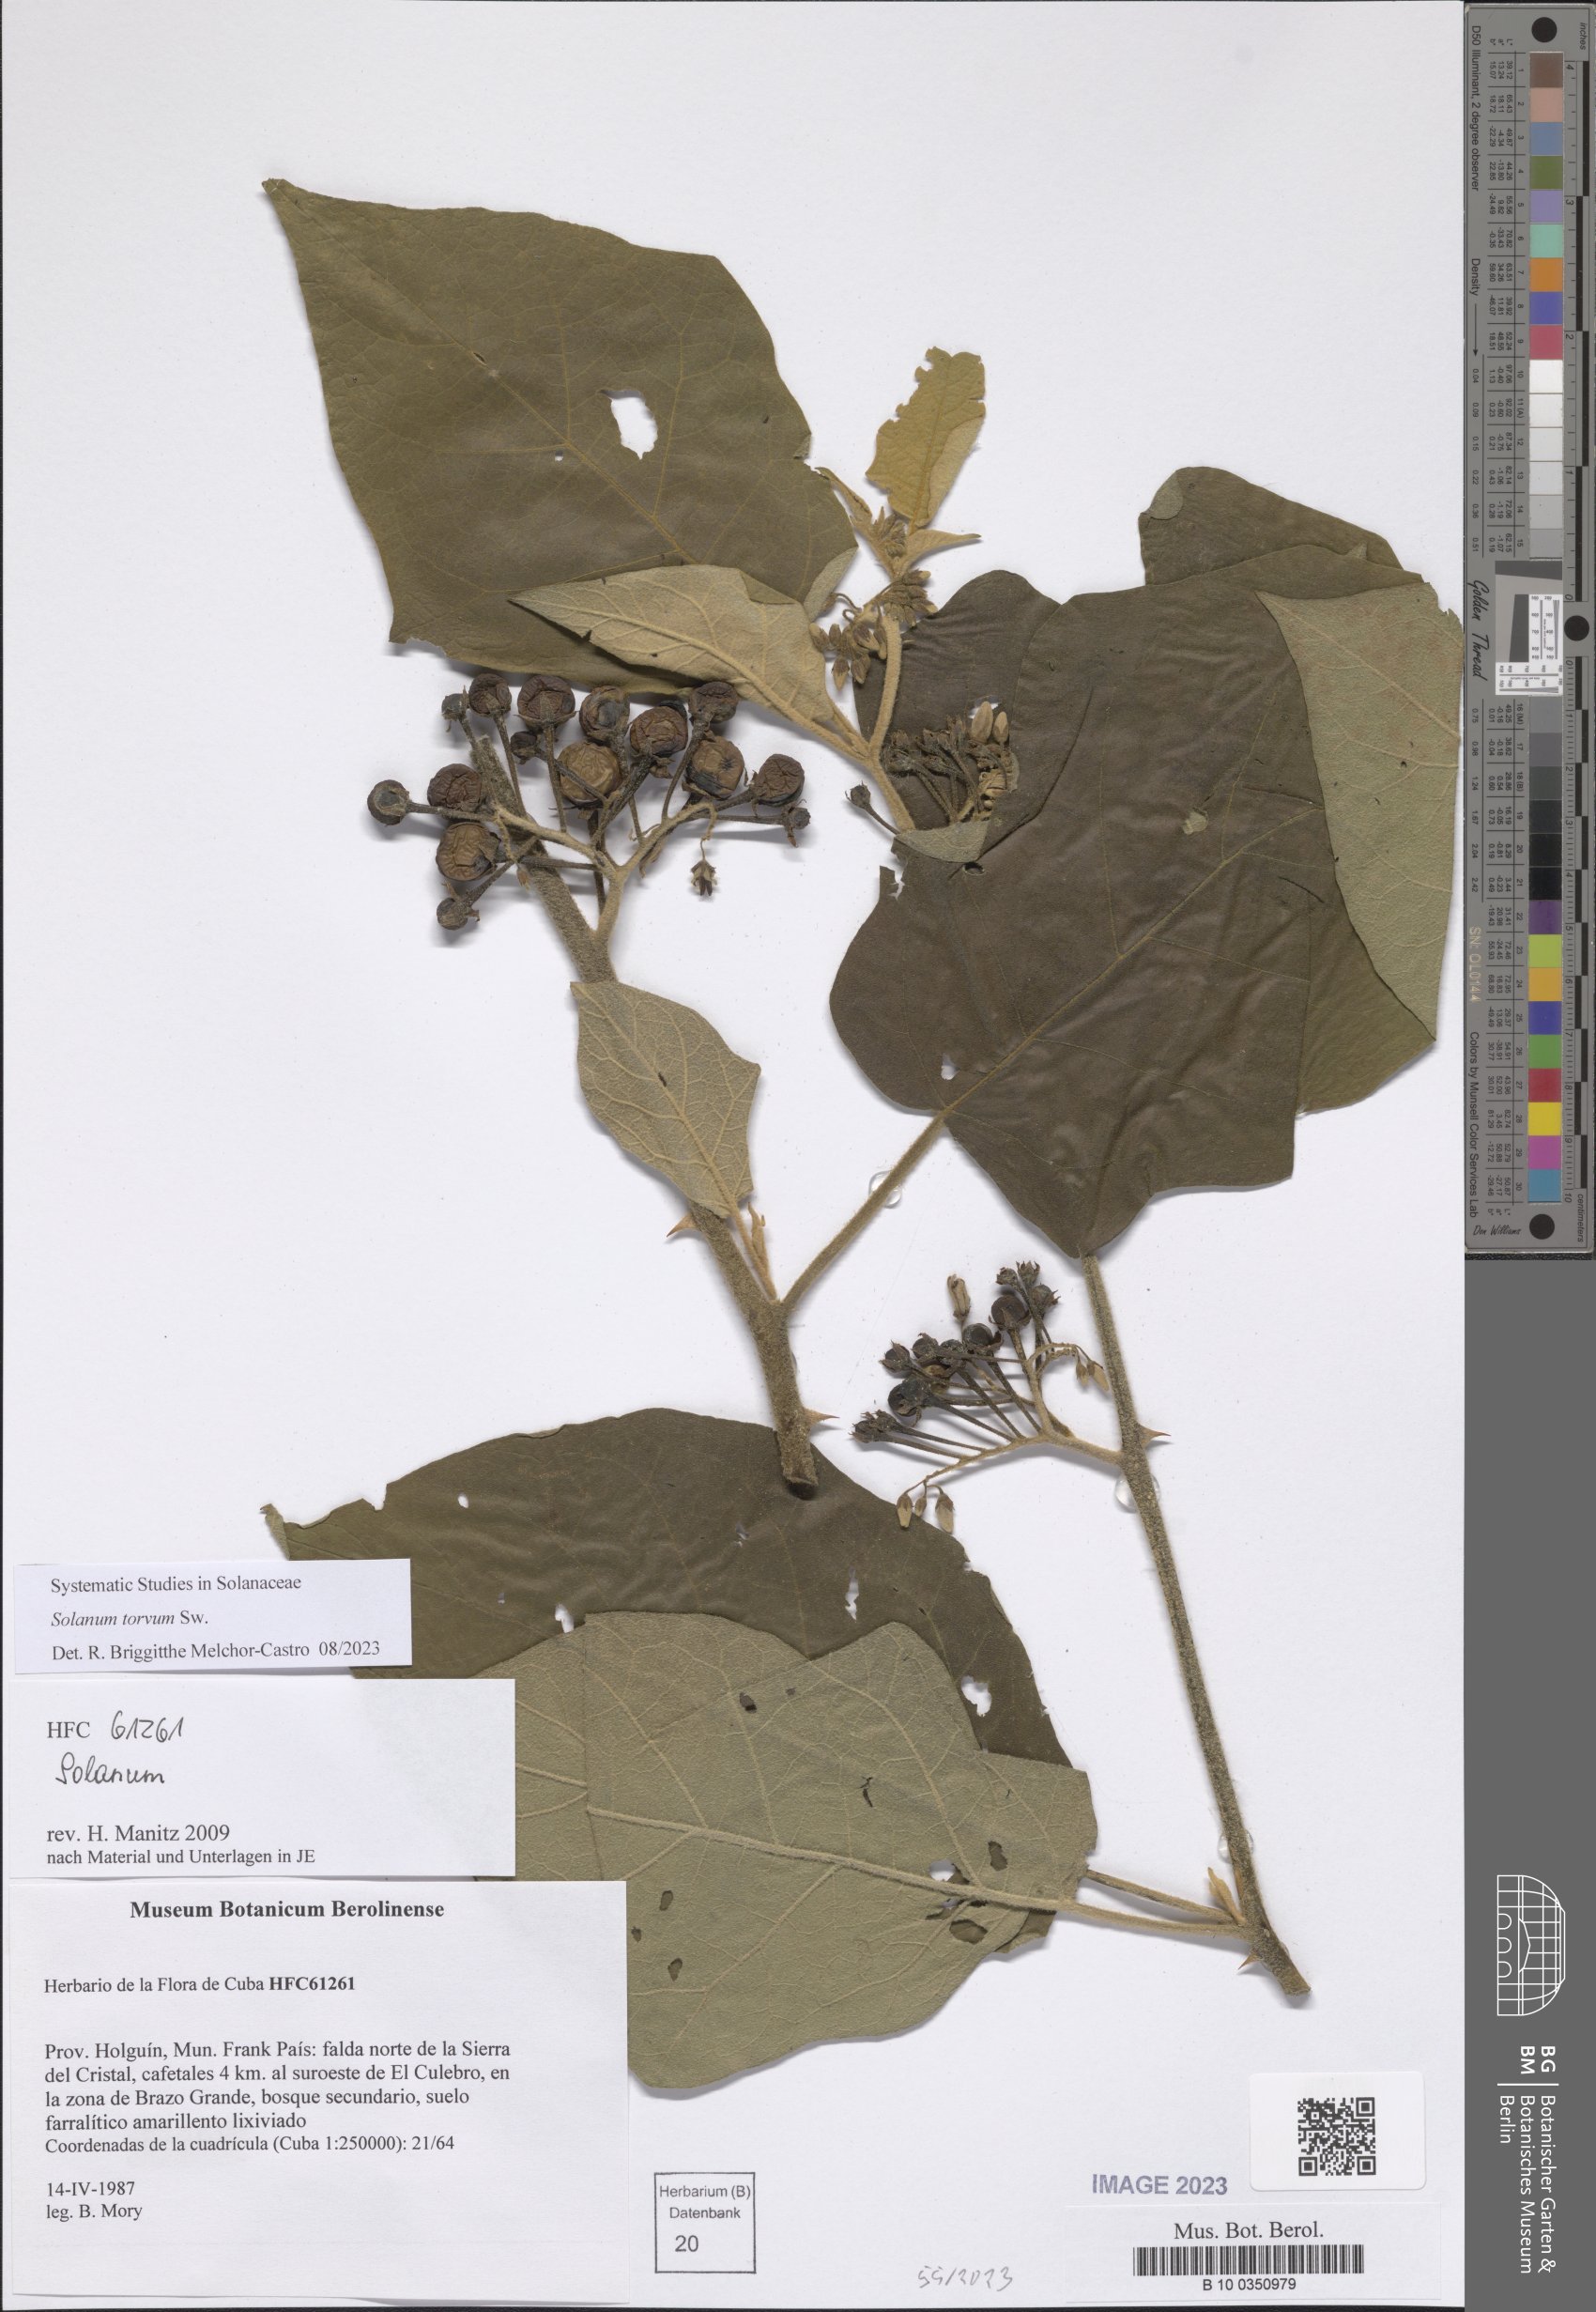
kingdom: Plantae
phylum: Tracheophyta
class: Magnoliopsida
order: Solanales
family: Solanaceae
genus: Solanum
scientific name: Solanum torvum
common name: Turkey berry
